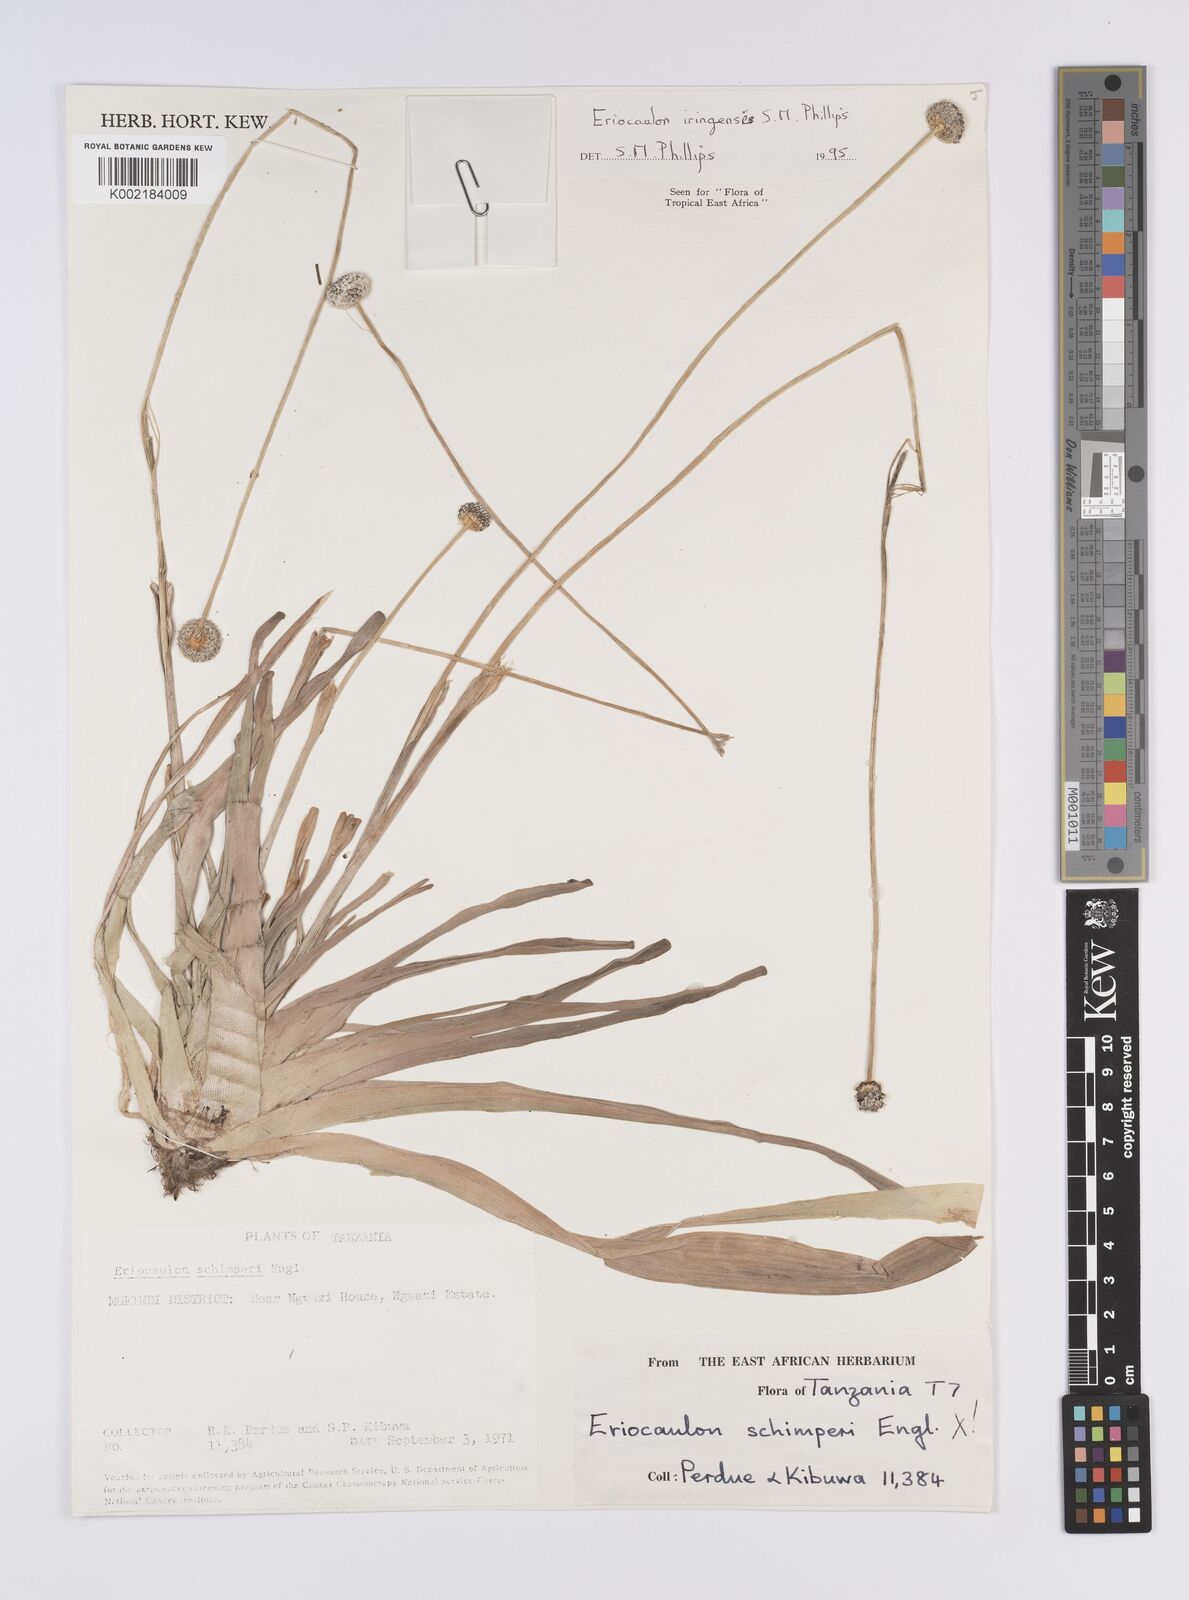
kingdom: Plantae
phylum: Tracheophyta
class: Liliopsida
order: Poales
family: Eriocaulaceae
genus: Eriocaulon
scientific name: Eriocaulon iringense
